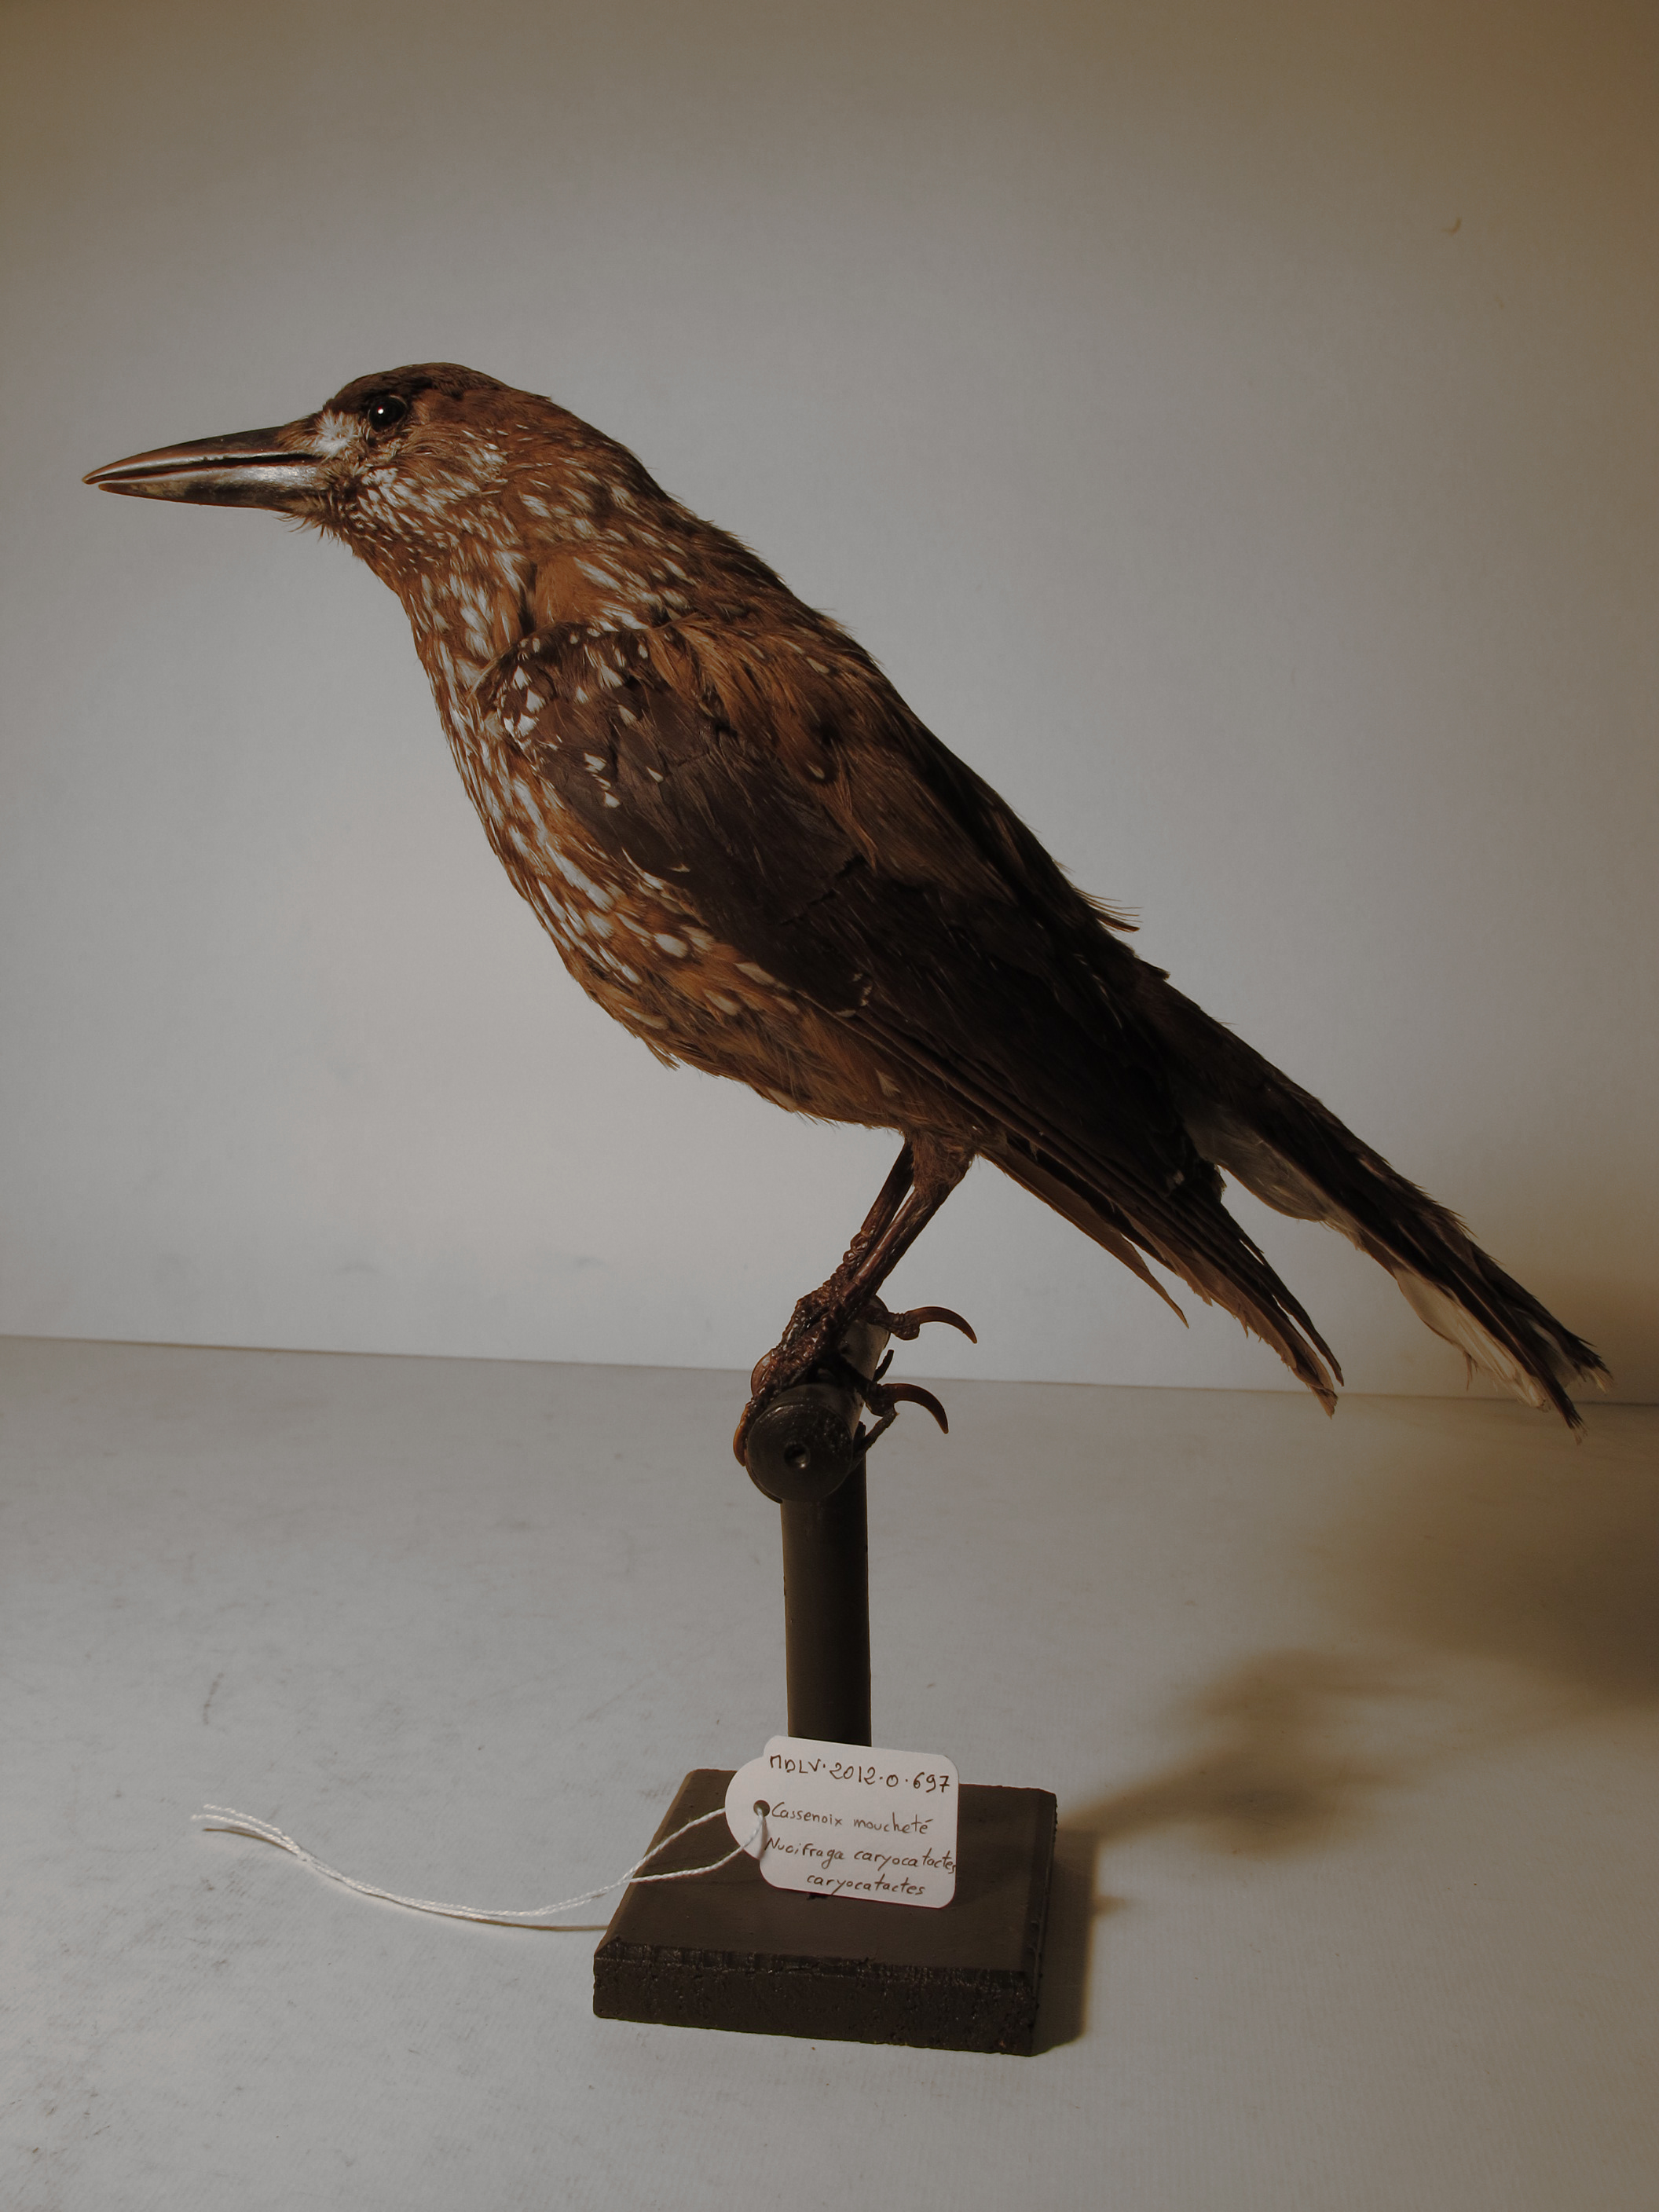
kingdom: Animalia
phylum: Chordata
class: Aves
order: Passeriformes
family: Corvidae
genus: Nucifraga
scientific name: Nucifraga caryocatactes
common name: Spotted Nutcracker
